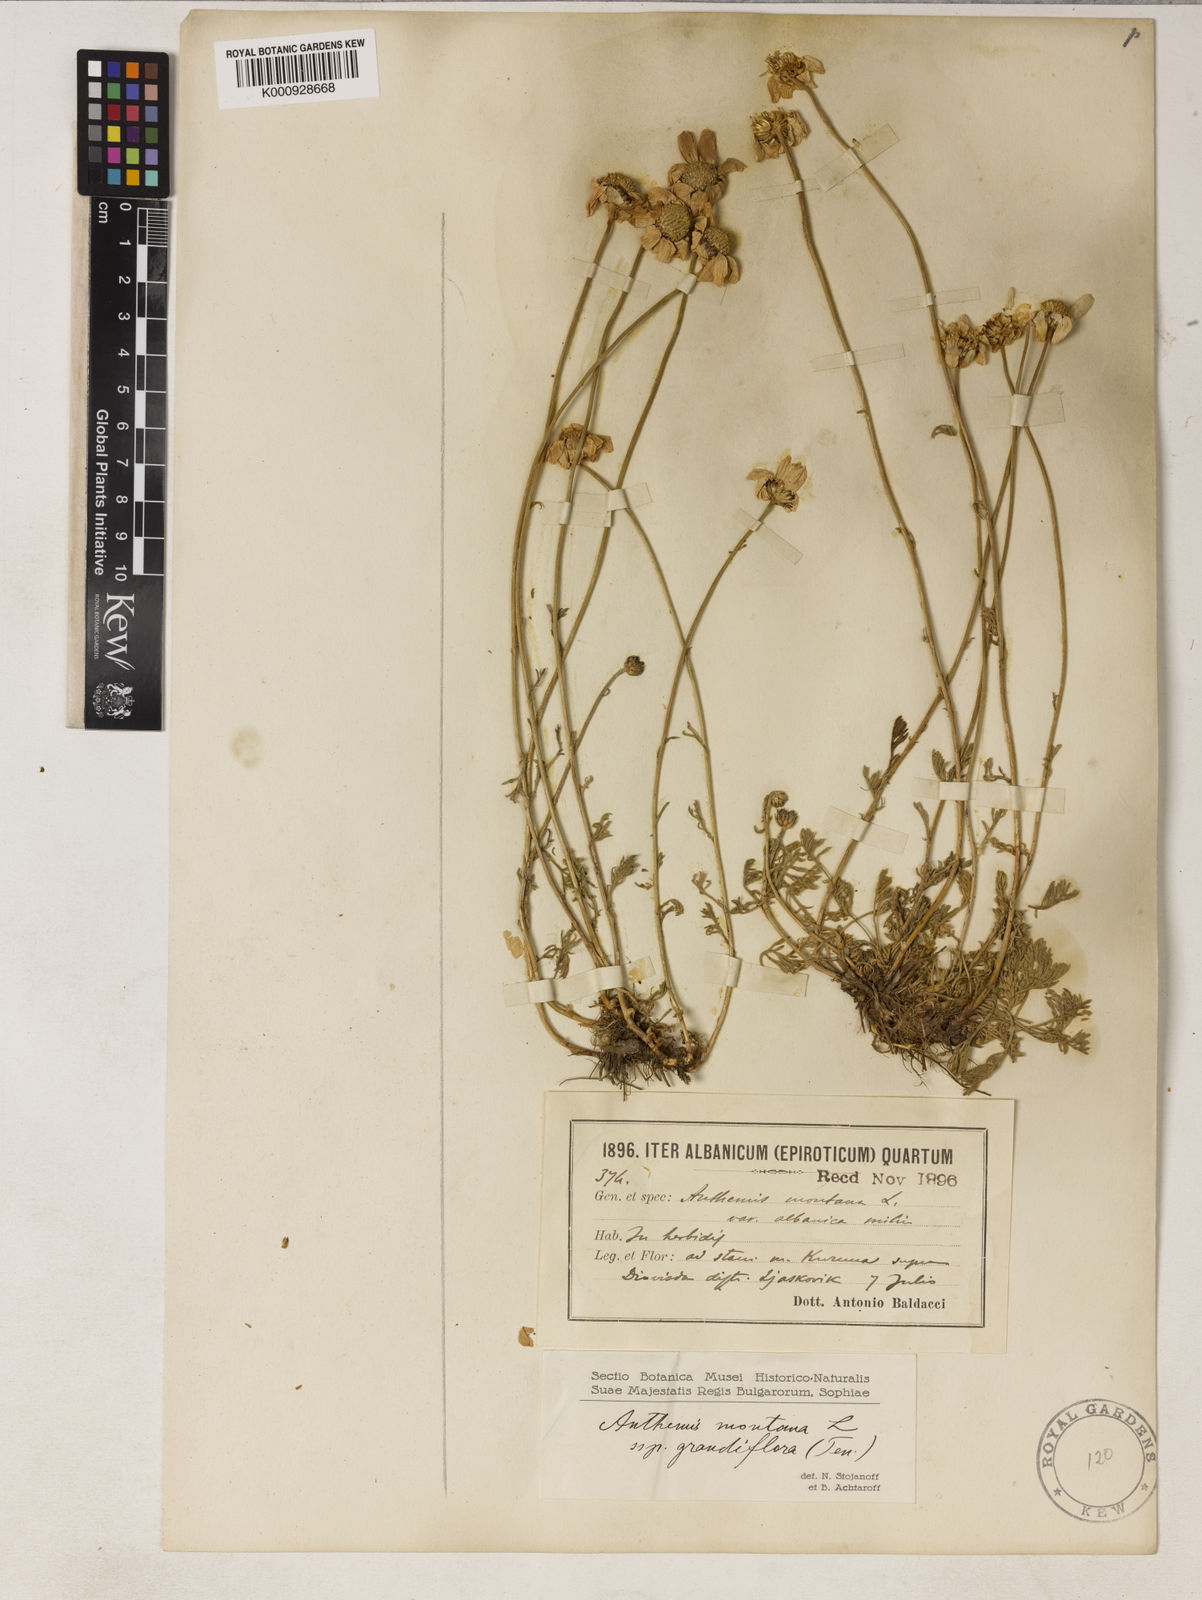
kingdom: Plantae
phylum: Tracheophyta
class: Magnoliopsida
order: Asterales
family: Asteraceae
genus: Anthemis
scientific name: Anthemis cretica
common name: Mountain dog-daisy
